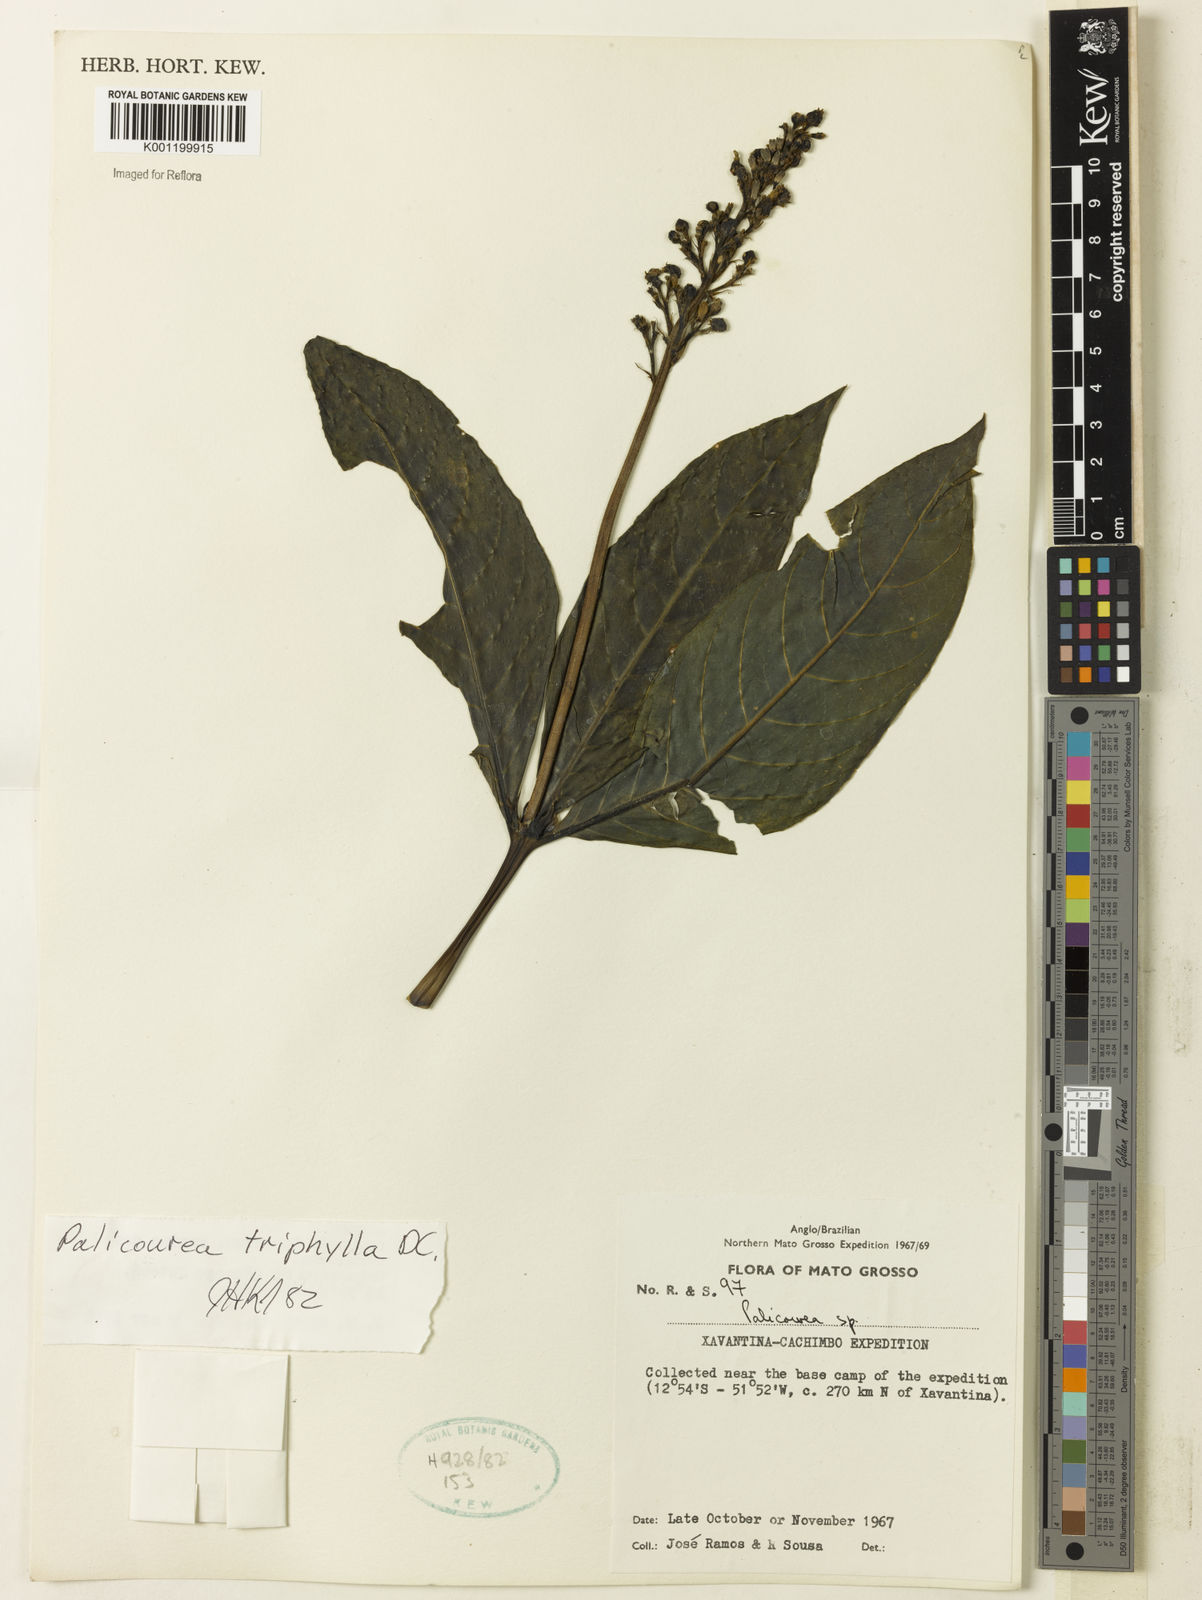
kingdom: Plantae
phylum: Tracheophyta
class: Magnoliopsida
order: Gentianales
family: Rubiaceae
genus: Palicourea
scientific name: Palicourea triphylla
